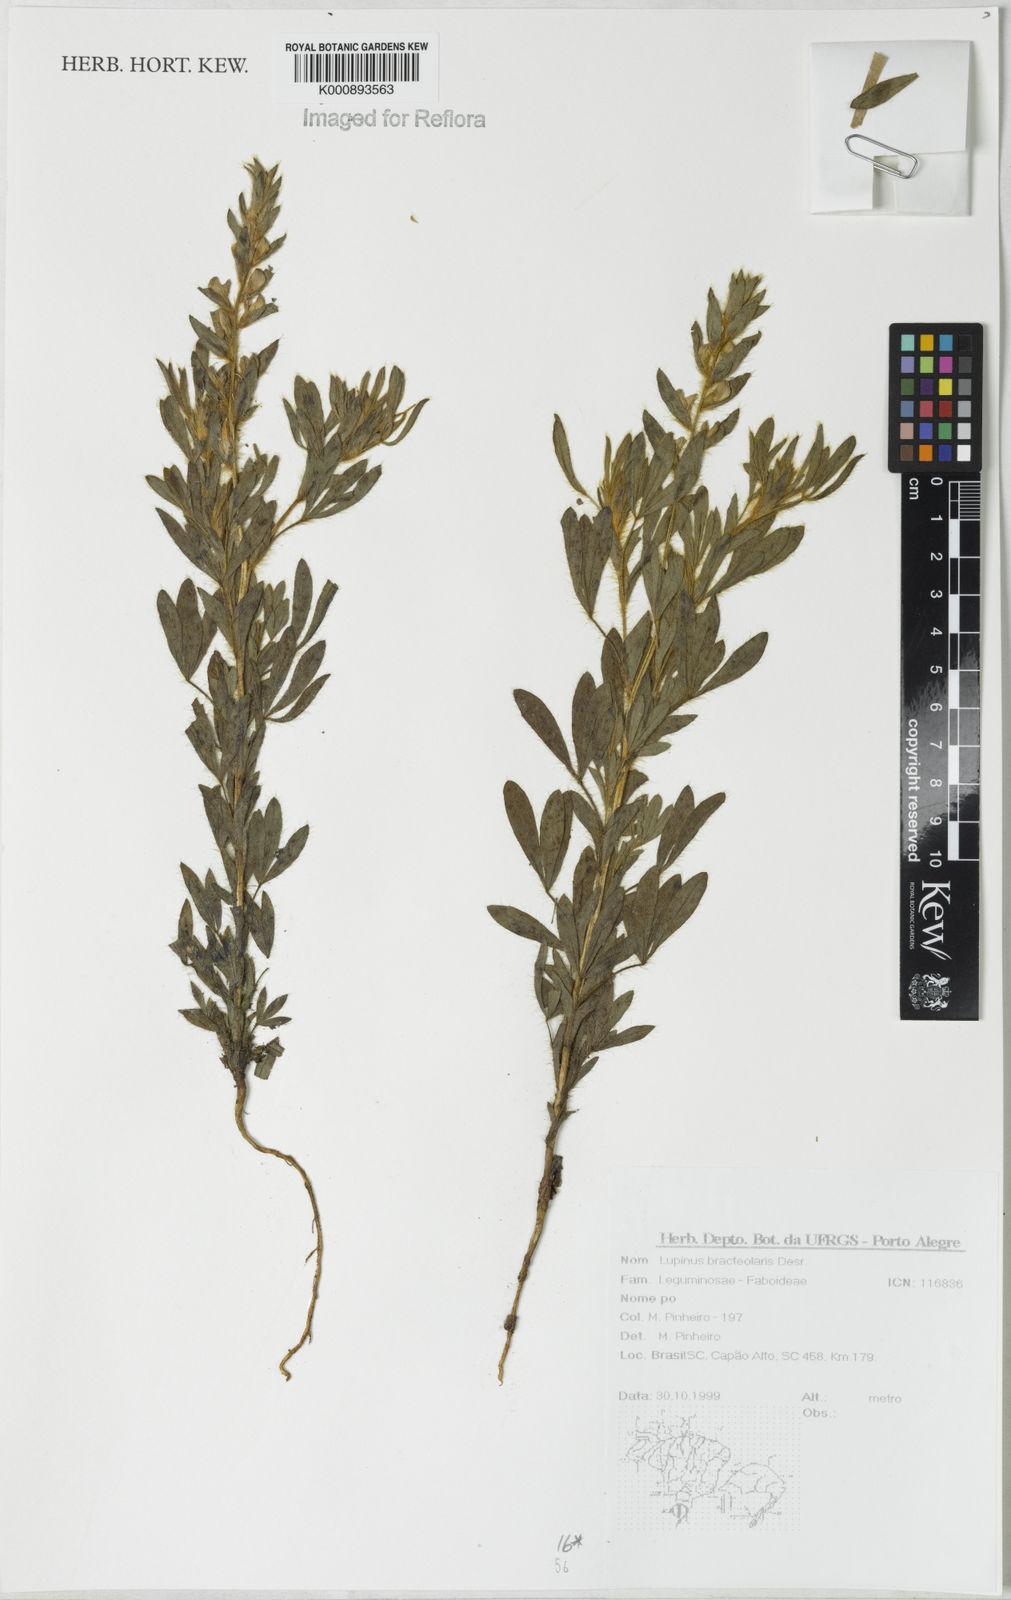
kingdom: Plantae
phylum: Tracheophyta
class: Magnoliopsida
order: Fabales
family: Fabaceae
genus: Lupinus
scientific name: Lupinus bracteolaris
